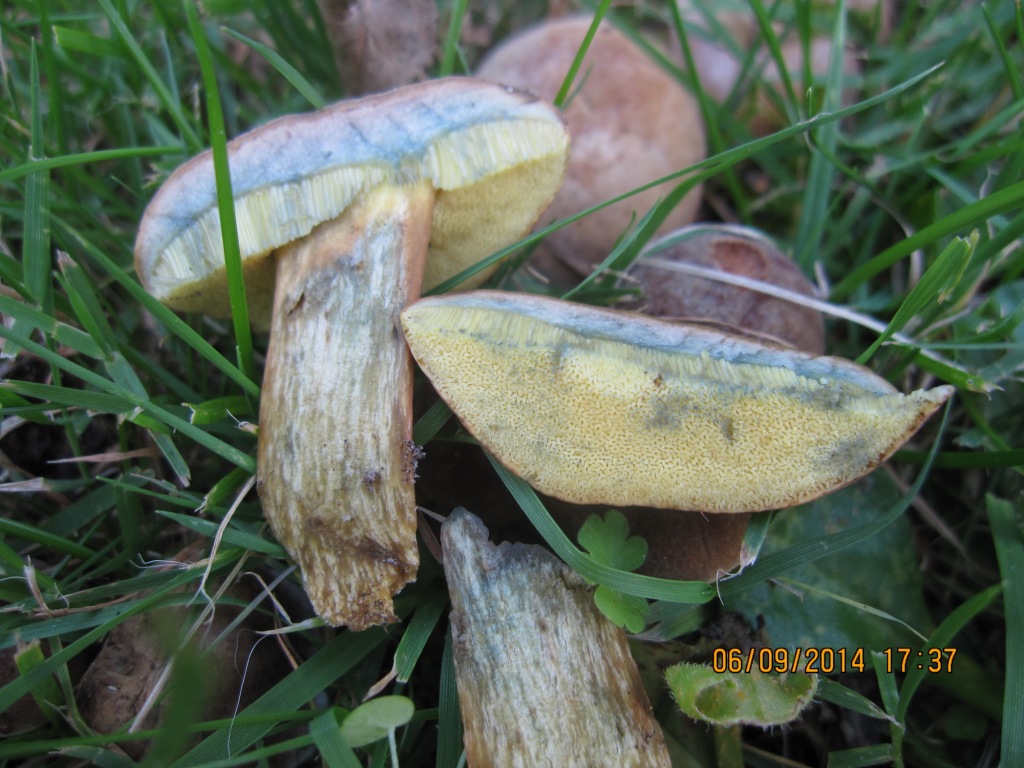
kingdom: Fungi
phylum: Basidiomycota
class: Agaricomycetes
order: Boletales
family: Boletaceae
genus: Hortiboletus
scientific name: Hortiboletus bubalinus
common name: aurora-rørhat
